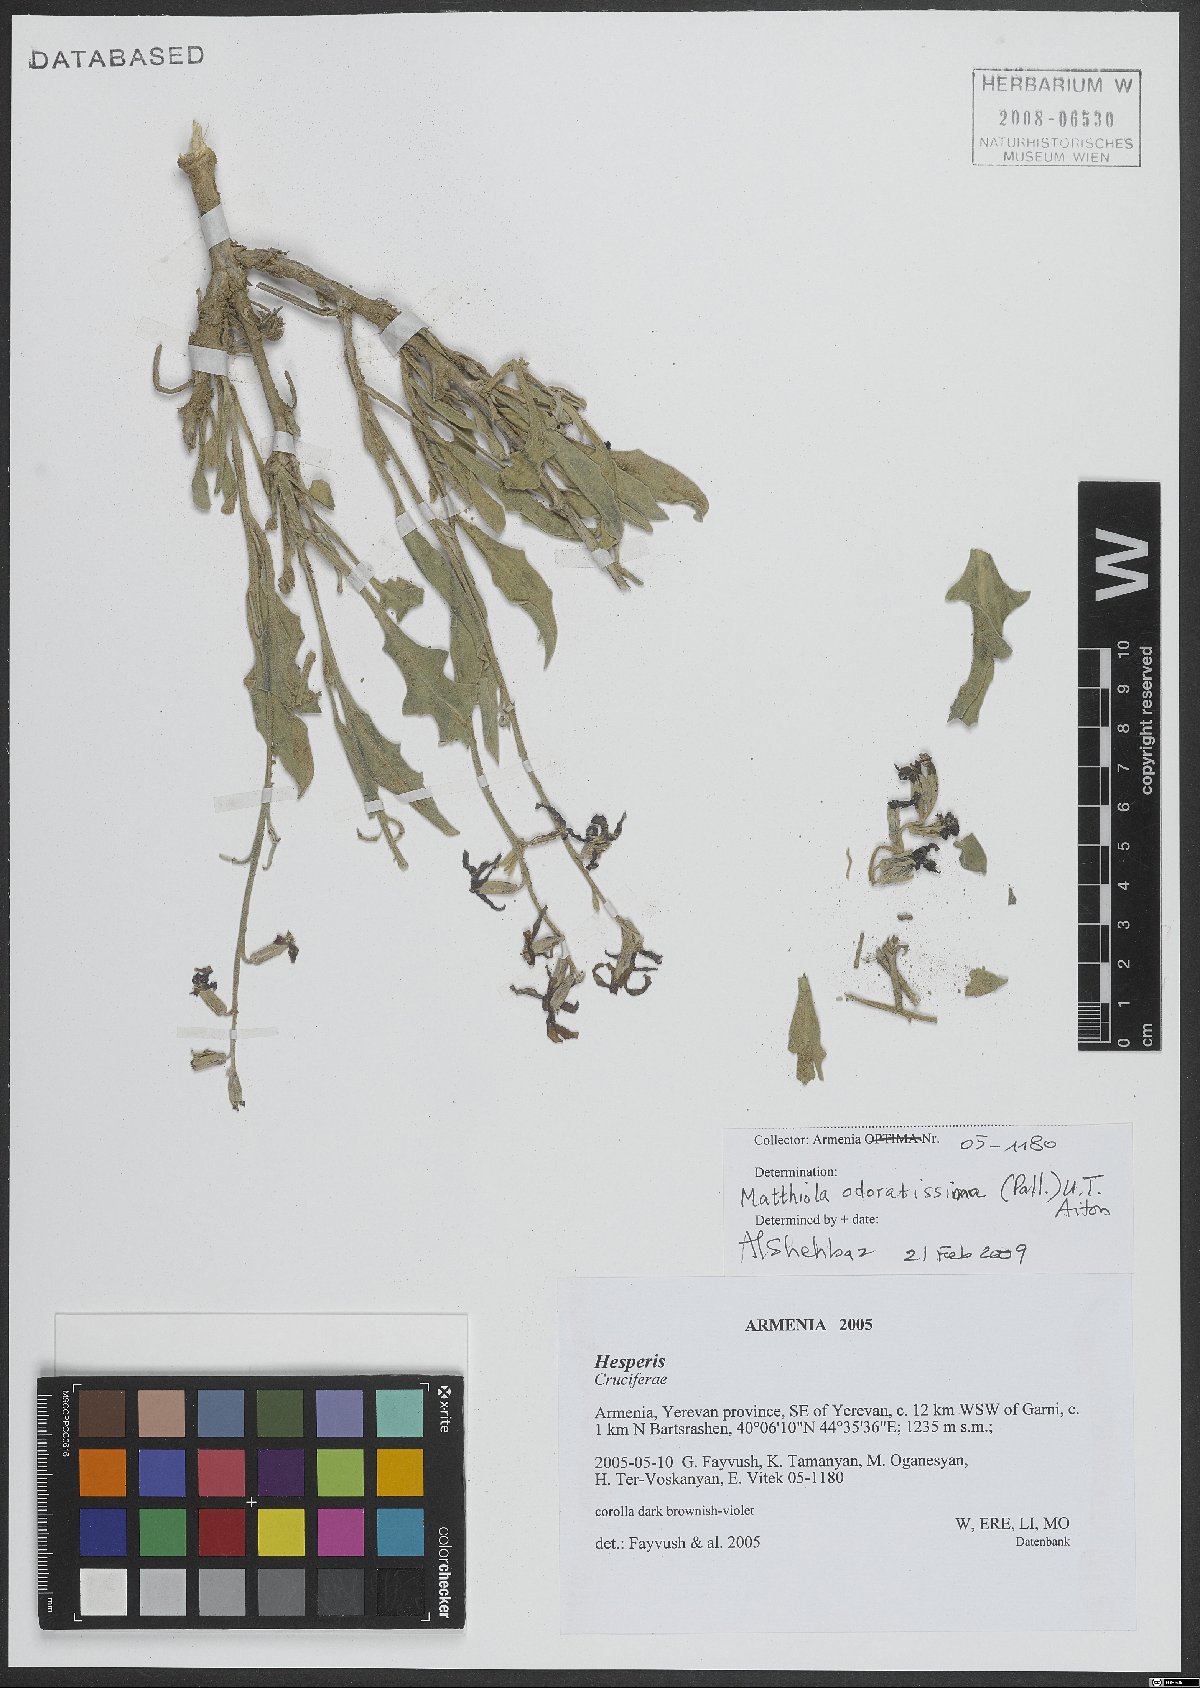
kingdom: Plantae
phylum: Tracheophyta
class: Magnoliopsida
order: Brassicales
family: Brassicaceae
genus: Matthiola
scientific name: Matthiola spathulata
